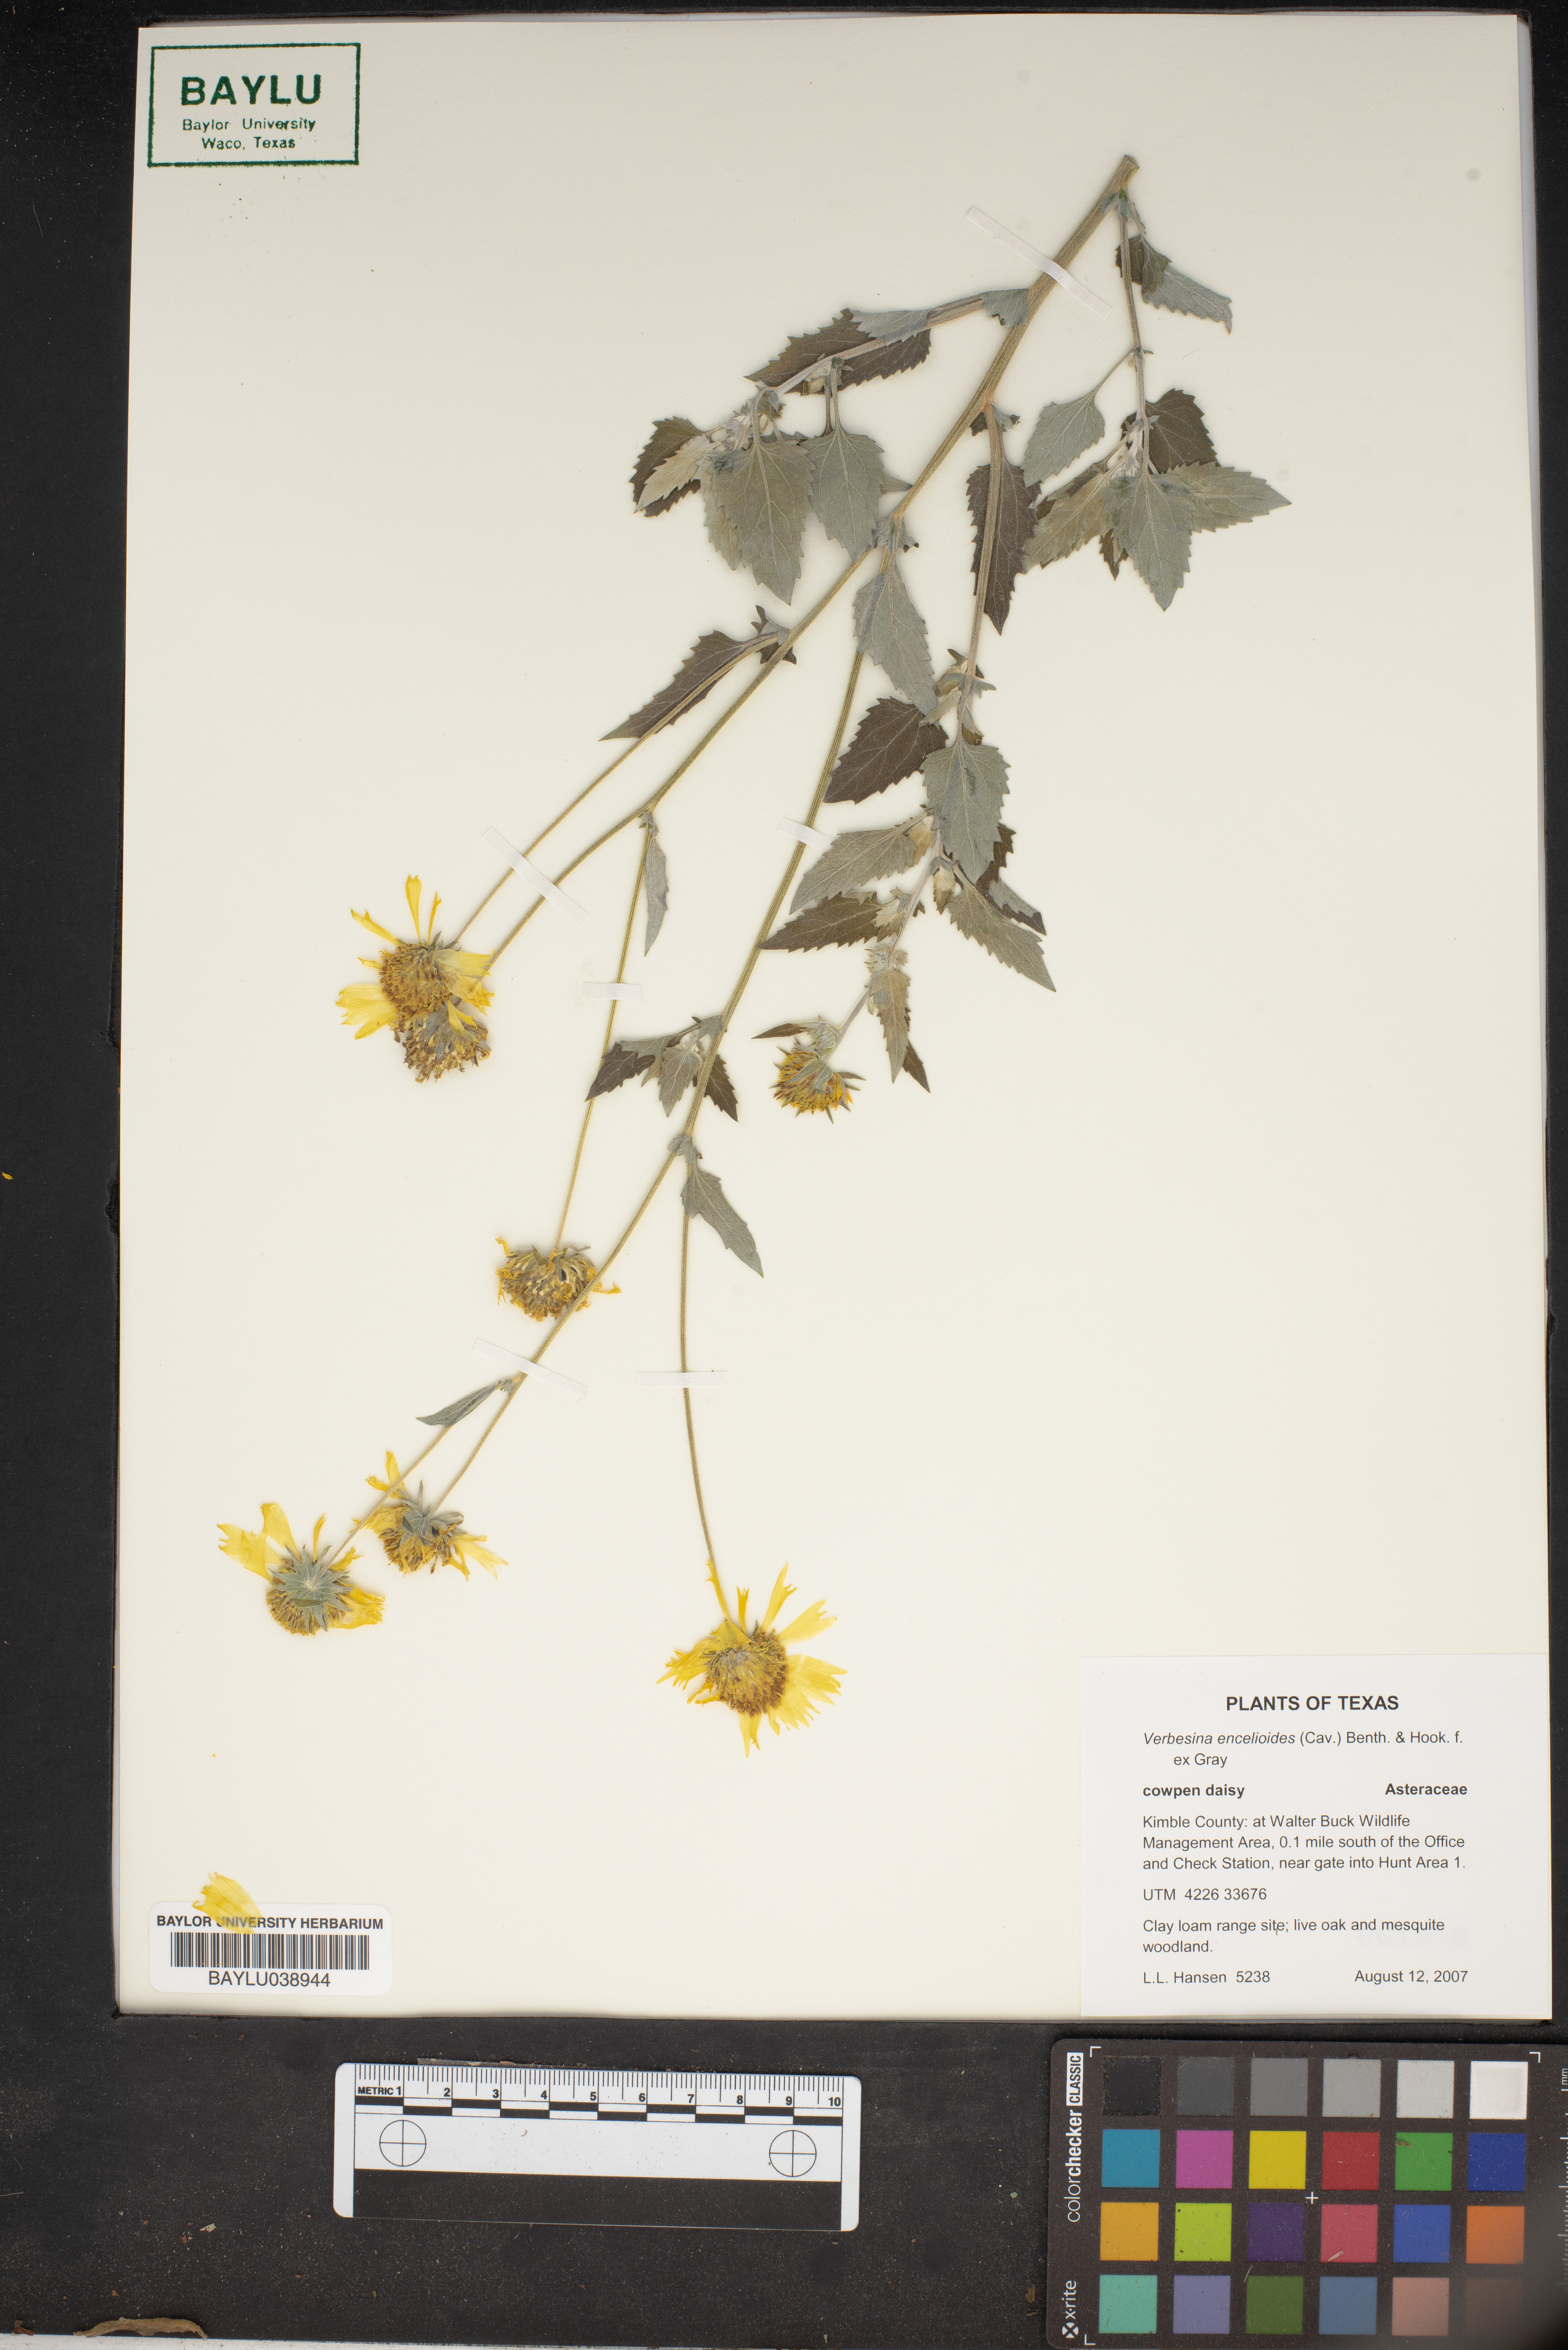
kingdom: Plantae
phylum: Tracheophyta
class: Magnoliopsida
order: Asterales
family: Asteraceae
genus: Verbesina
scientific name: Verbesina encelioides
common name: Golden crownbeard
